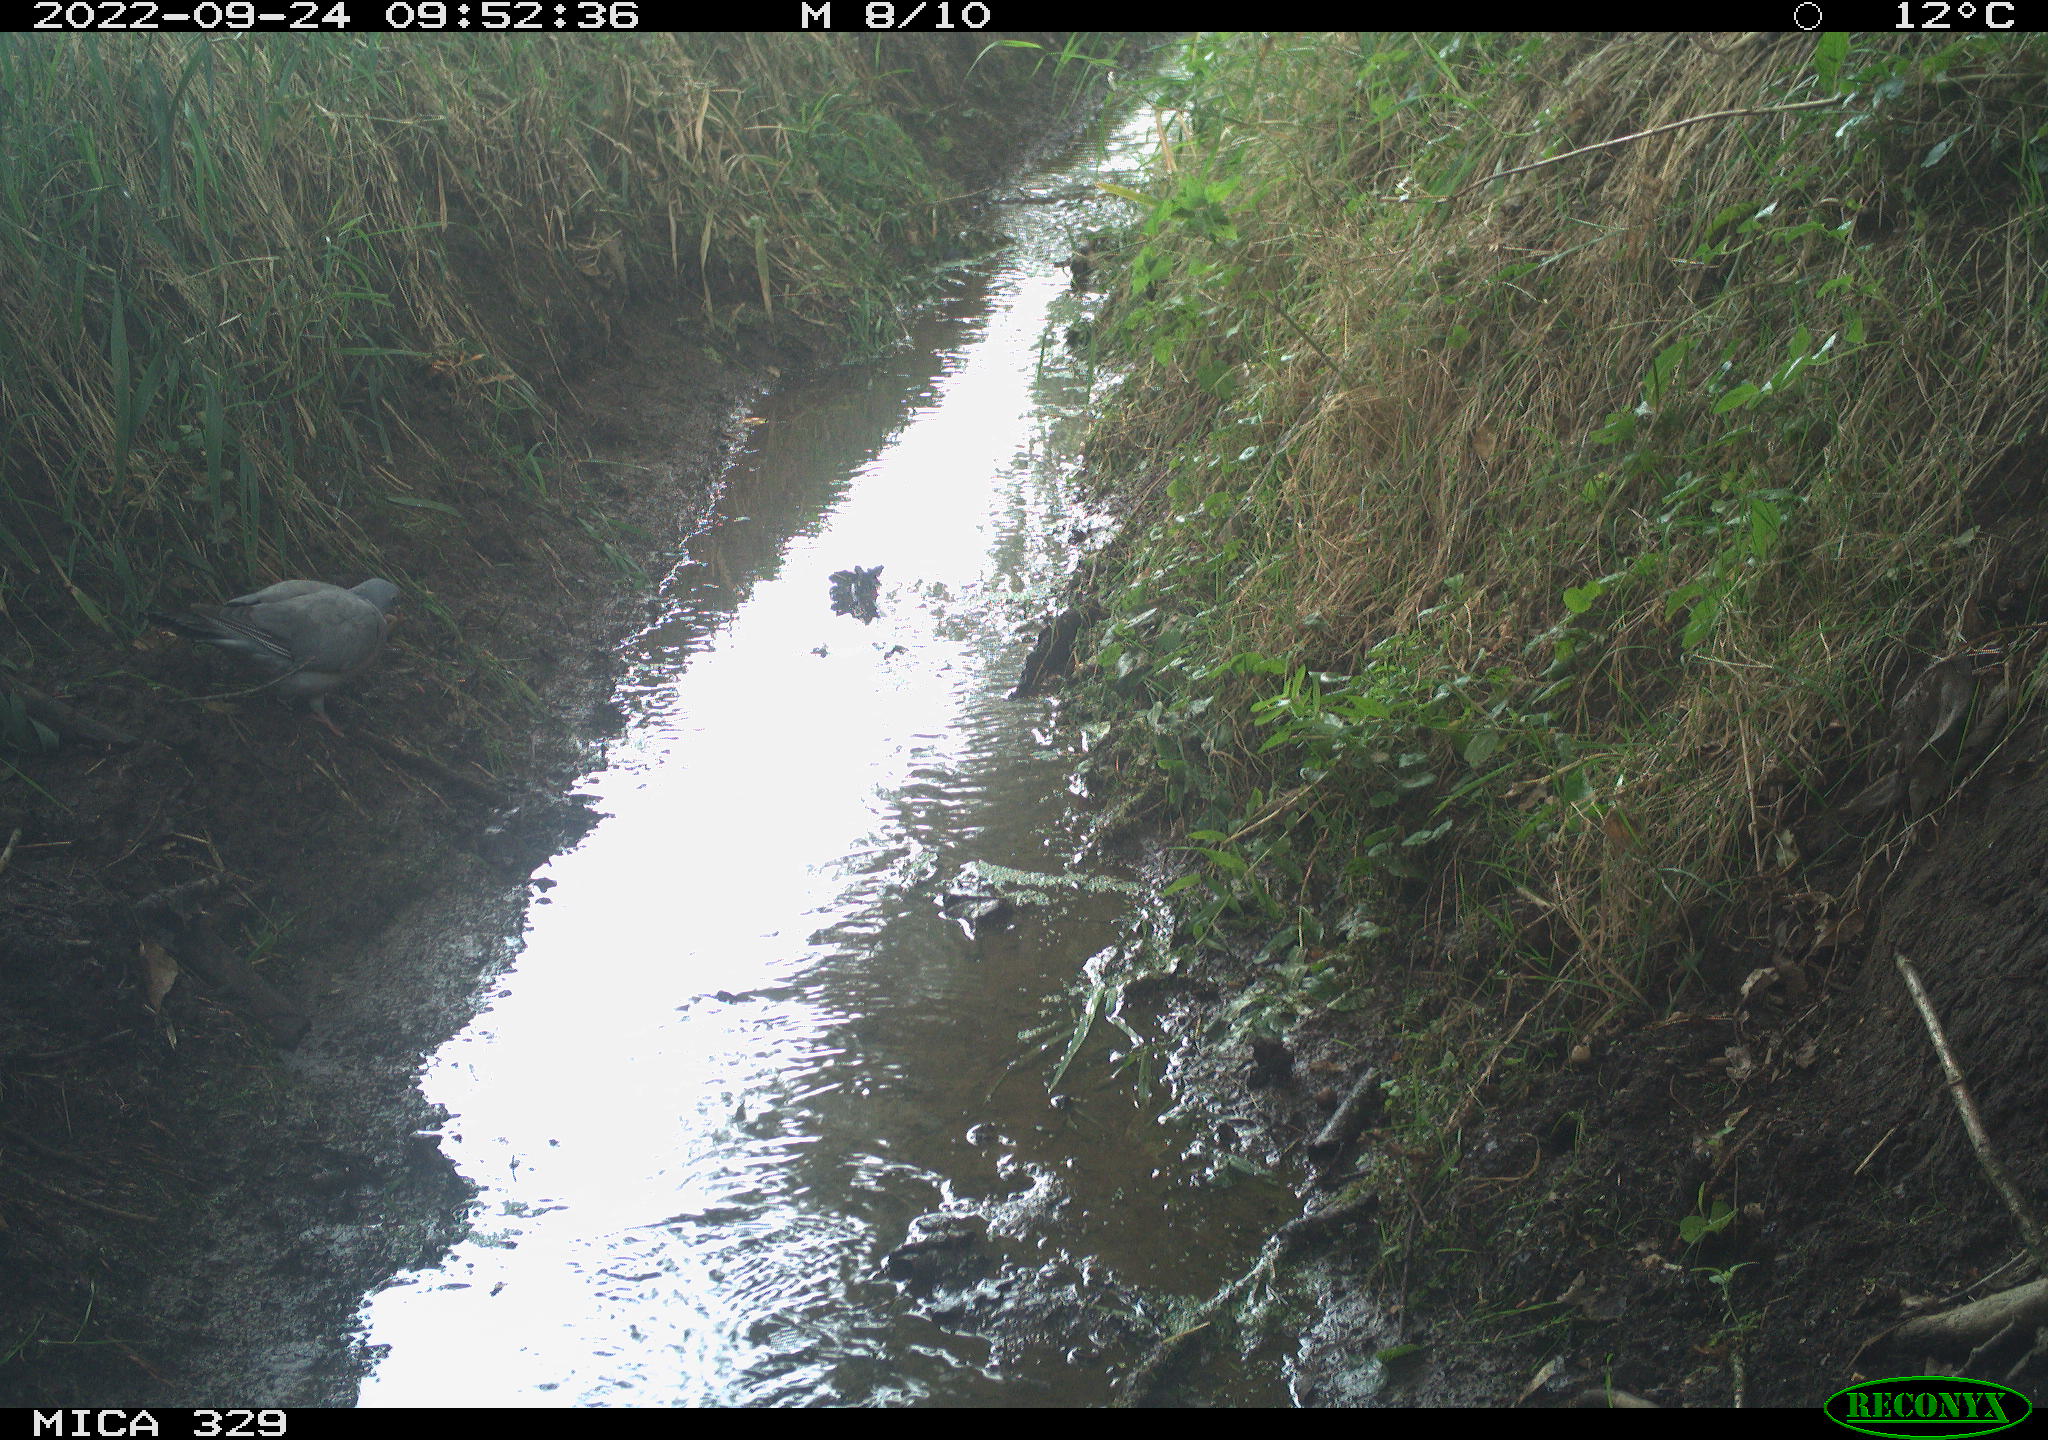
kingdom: Animalia
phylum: Chordata
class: Aves
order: Columbiformes
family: Columbidae
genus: Columba
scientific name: Columba palumbus
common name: Common wood pigeon
